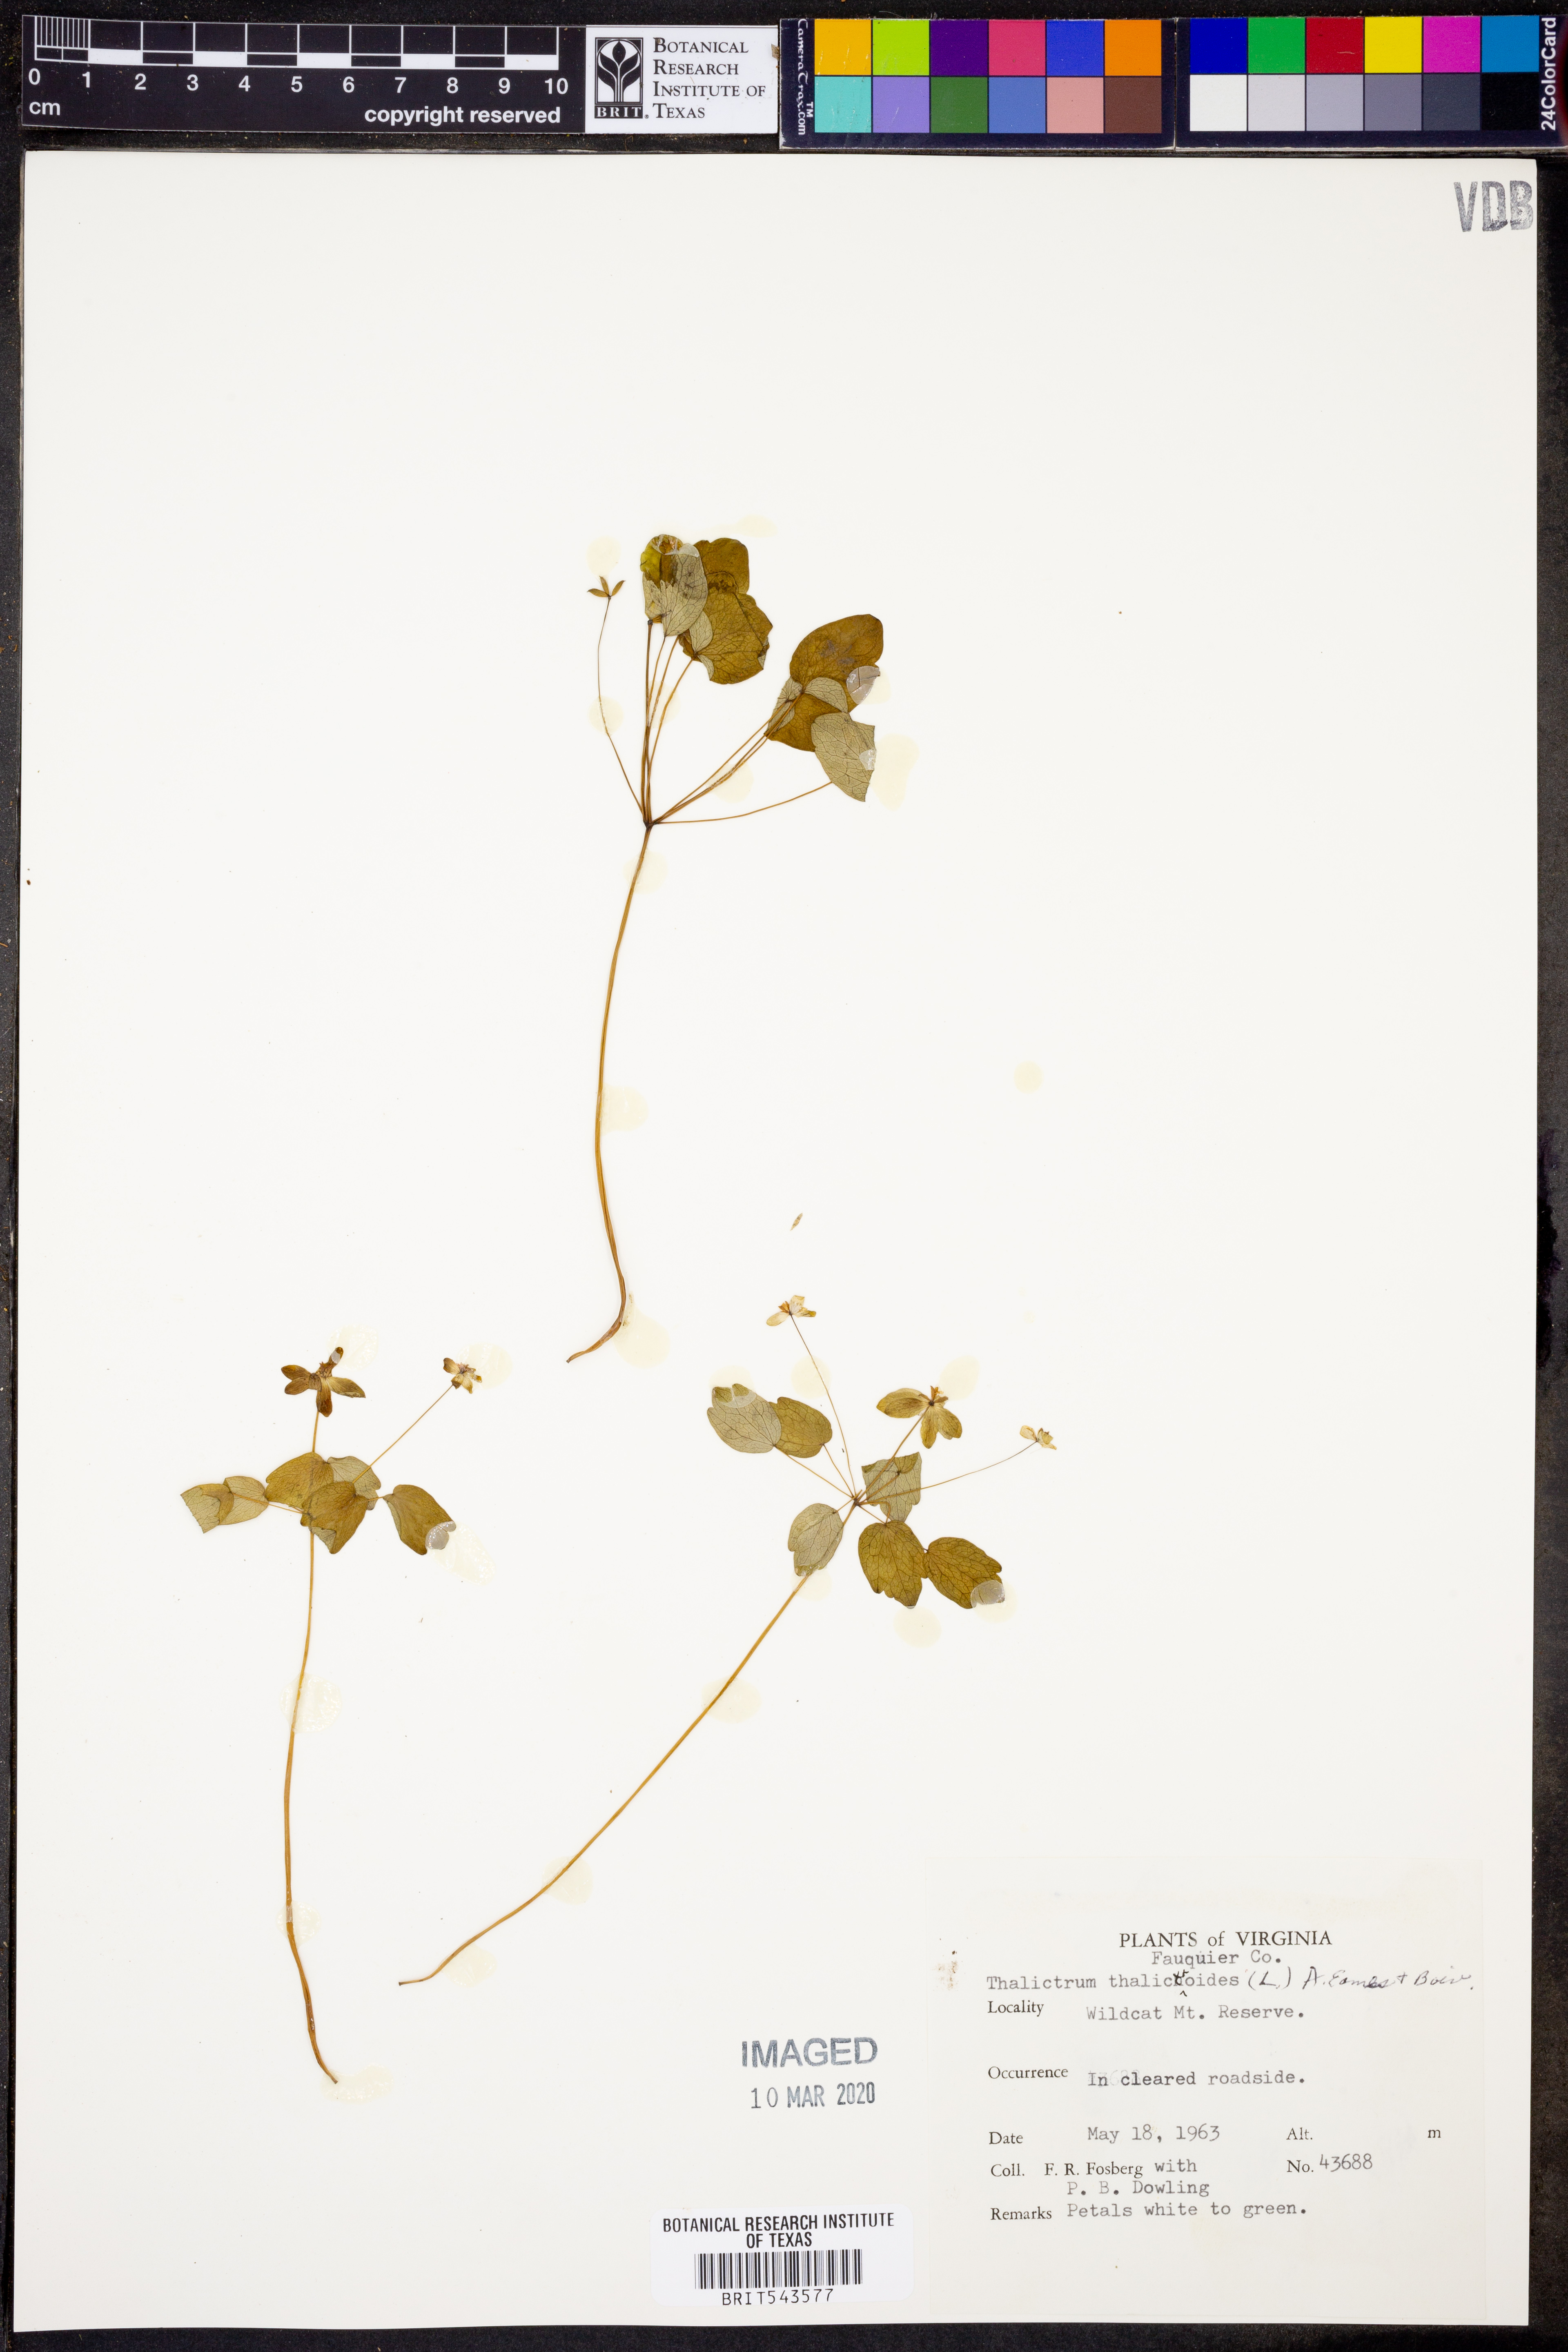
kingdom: Plantae
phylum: Tracheophyta
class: Magnoliopsida
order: Ranunculales
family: Ranunculaceae
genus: Thalictrum
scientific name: Thalictrum thalictroides
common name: Rue-anemone
